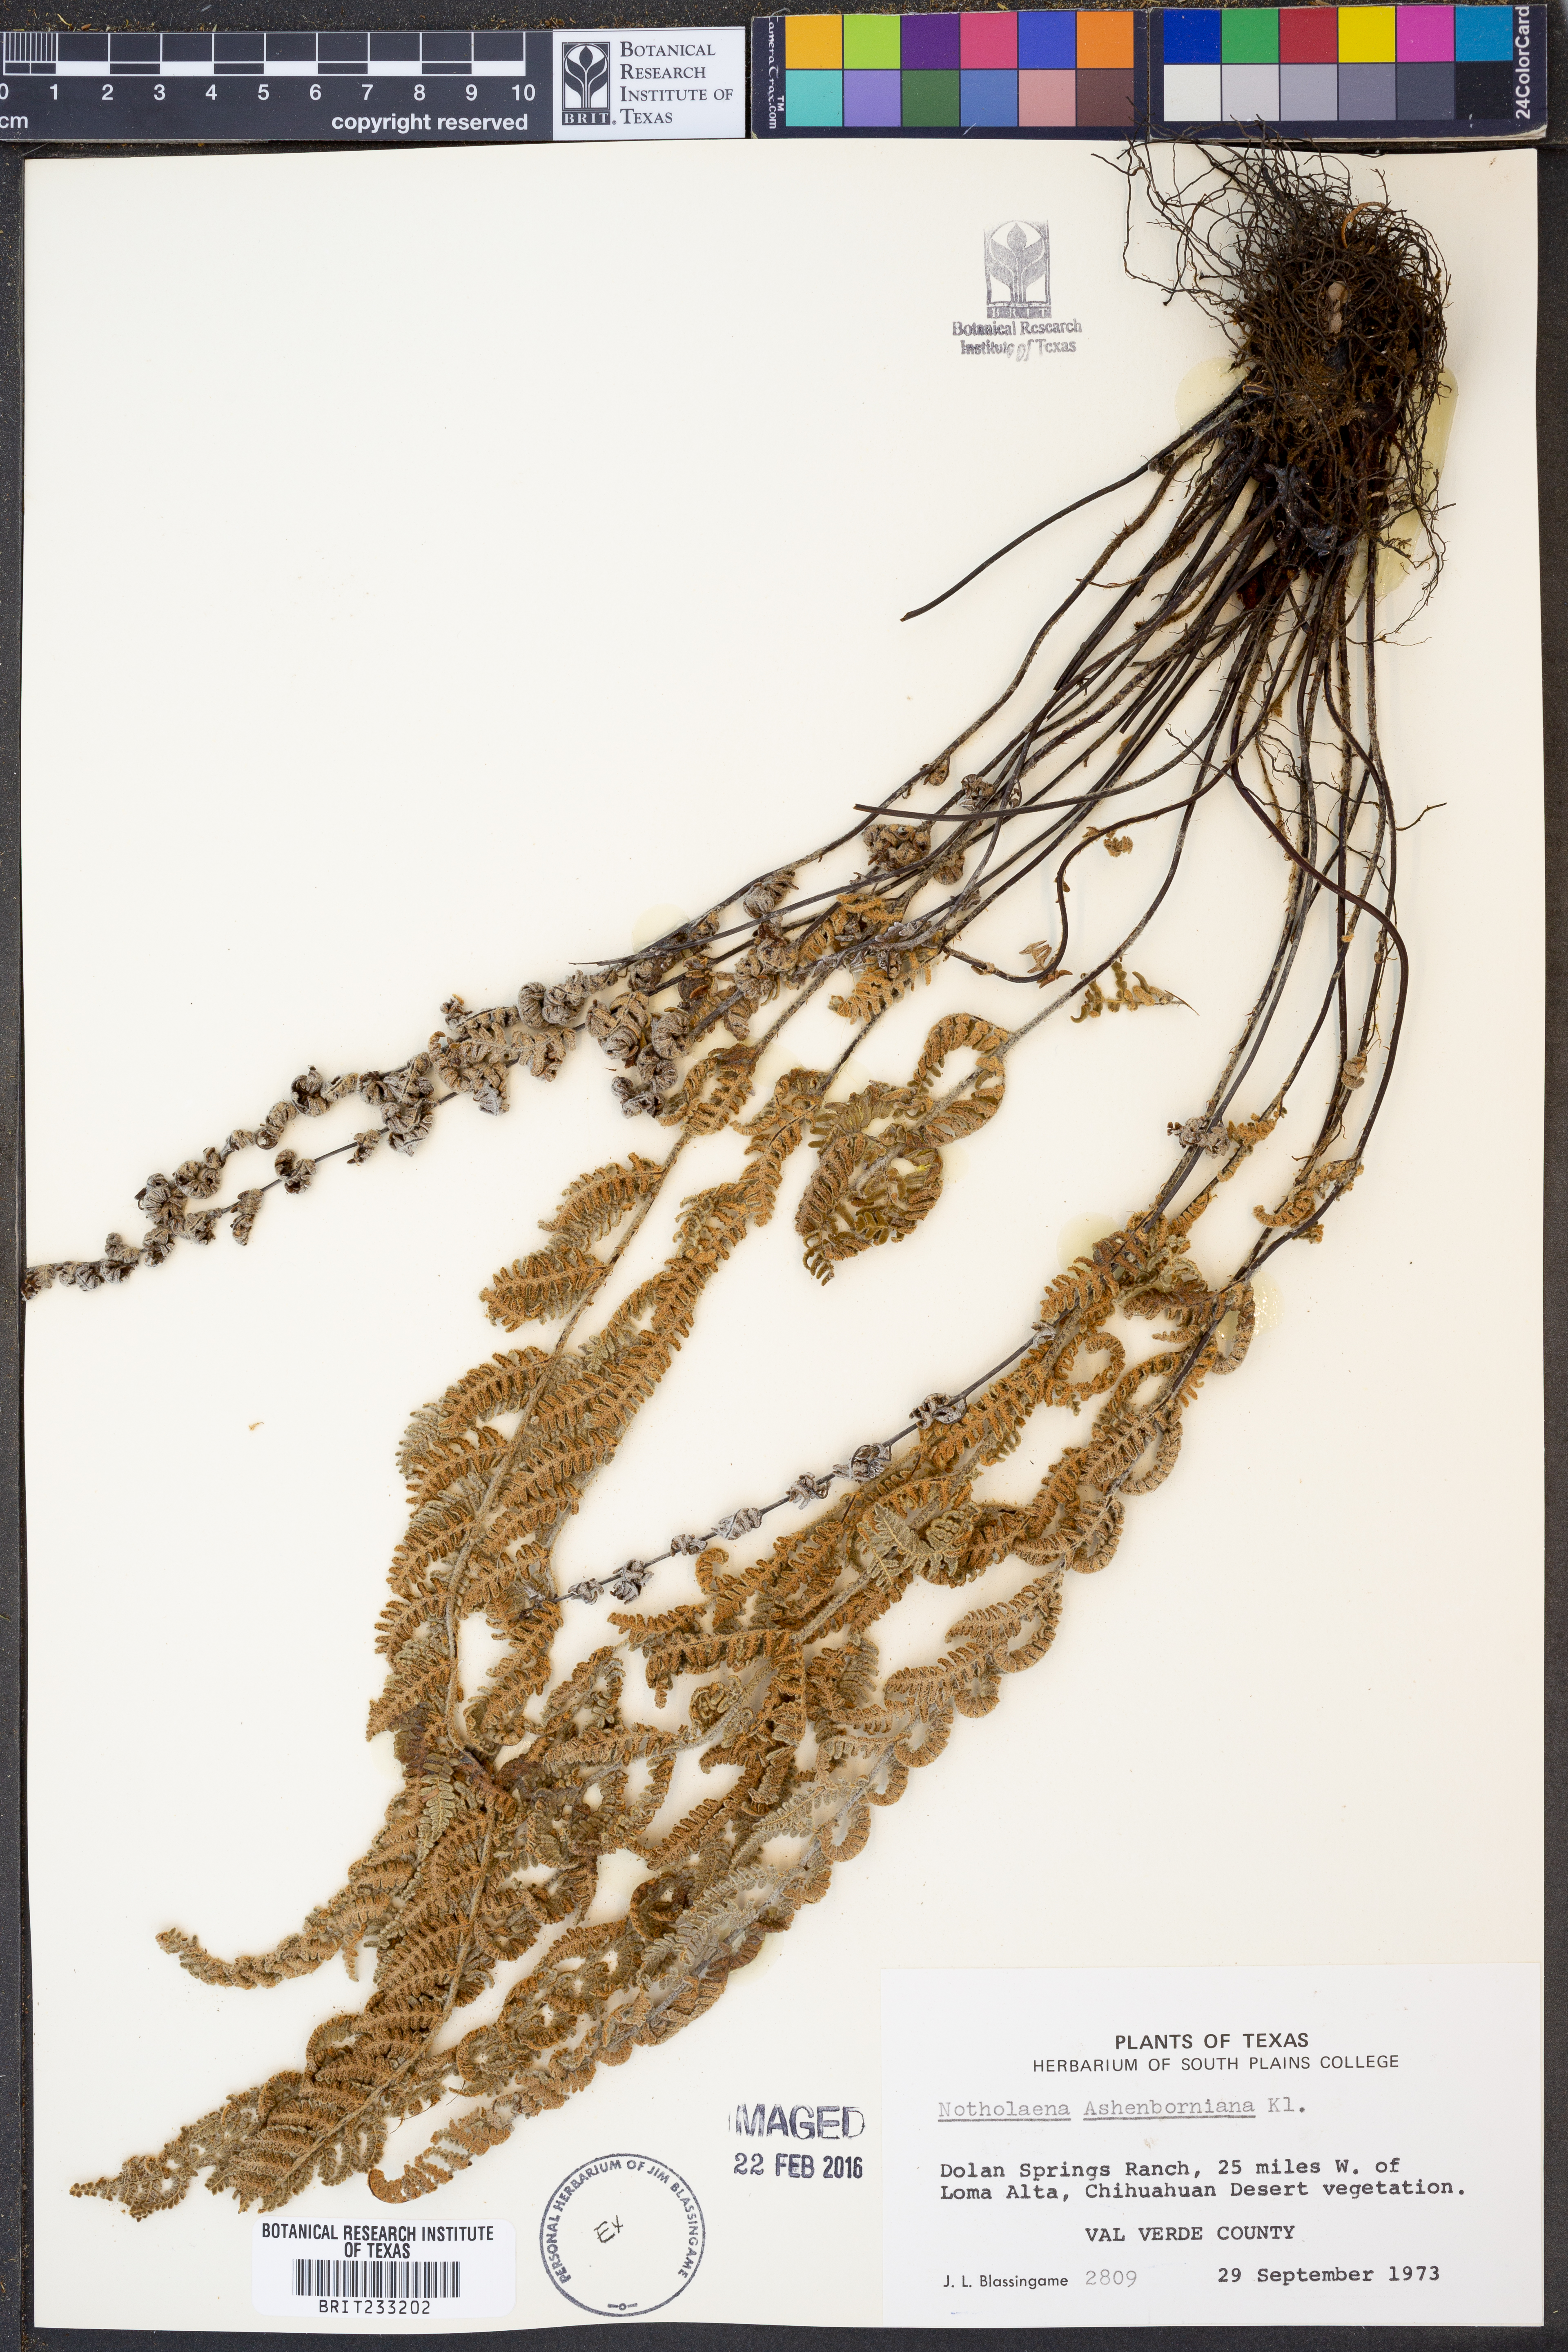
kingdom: Plantae
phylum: Tracheophyta
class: Polypodiopsida
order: Polypodiales
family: Pteridaceae
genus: Notholaena
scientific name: Notholaena aschenborniana
